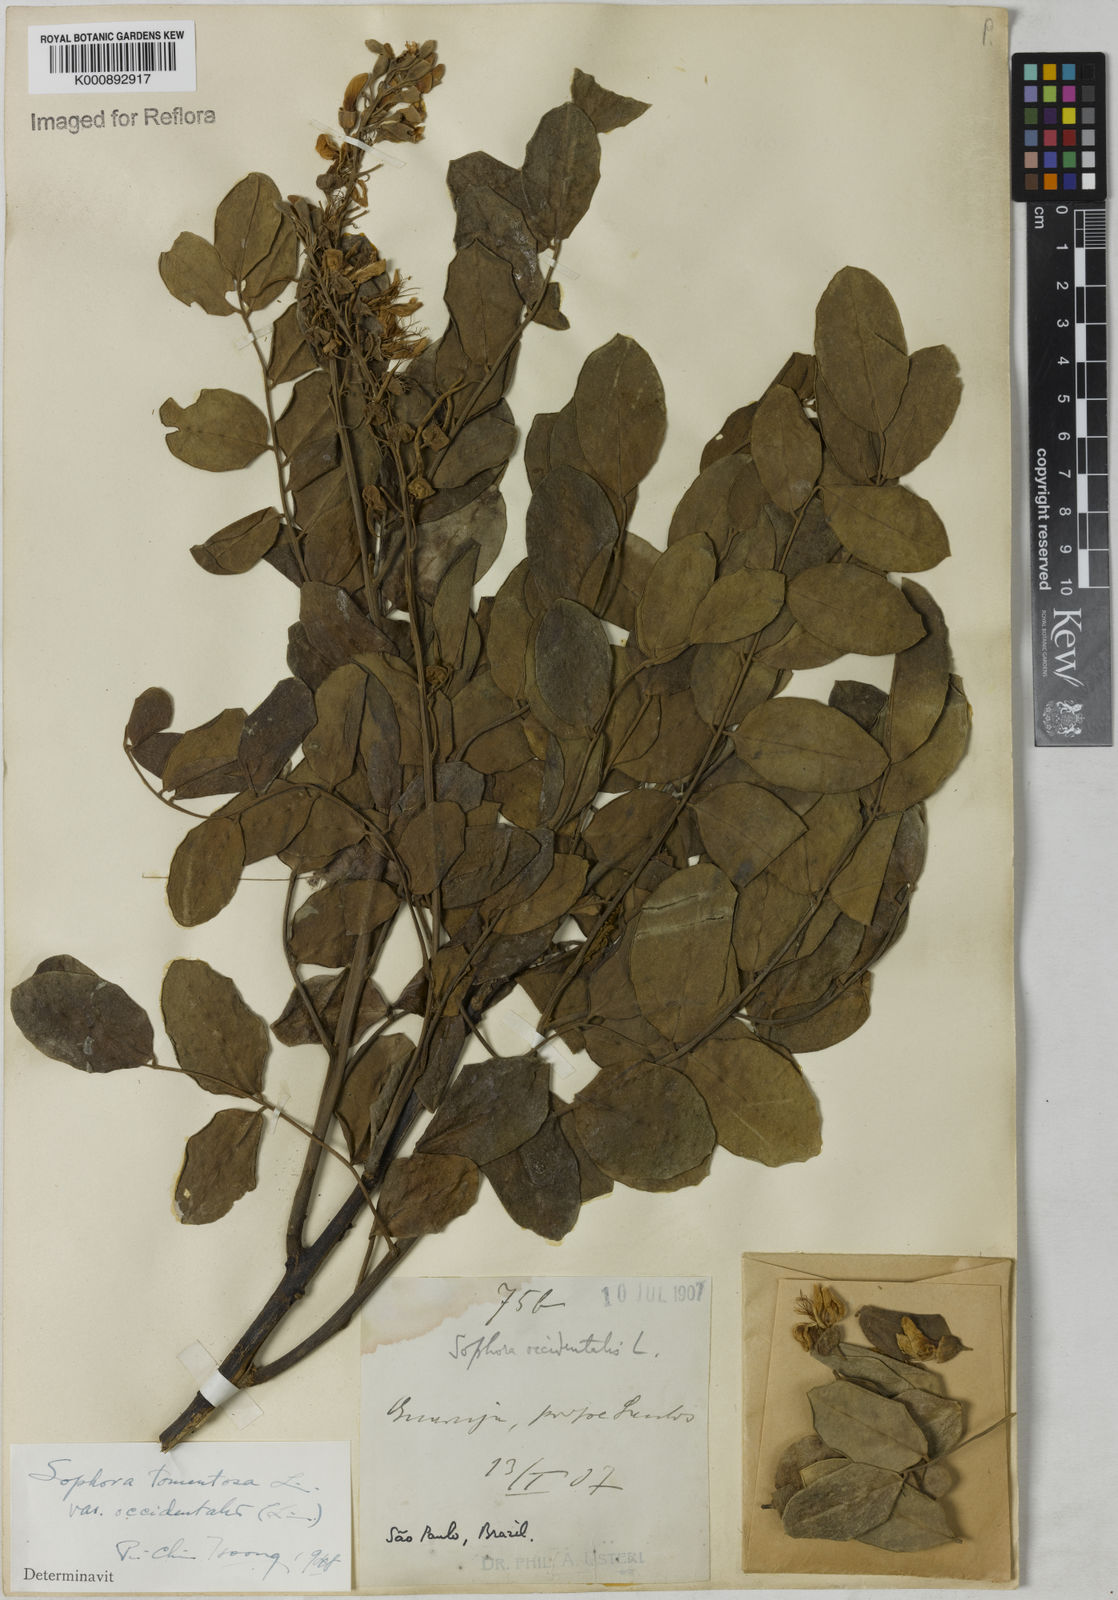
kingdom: Plantae
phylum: Tracheophyta
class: Magnoliopsida
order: Fabales
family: Fabaceae
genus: Sophora
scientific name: Sophora
